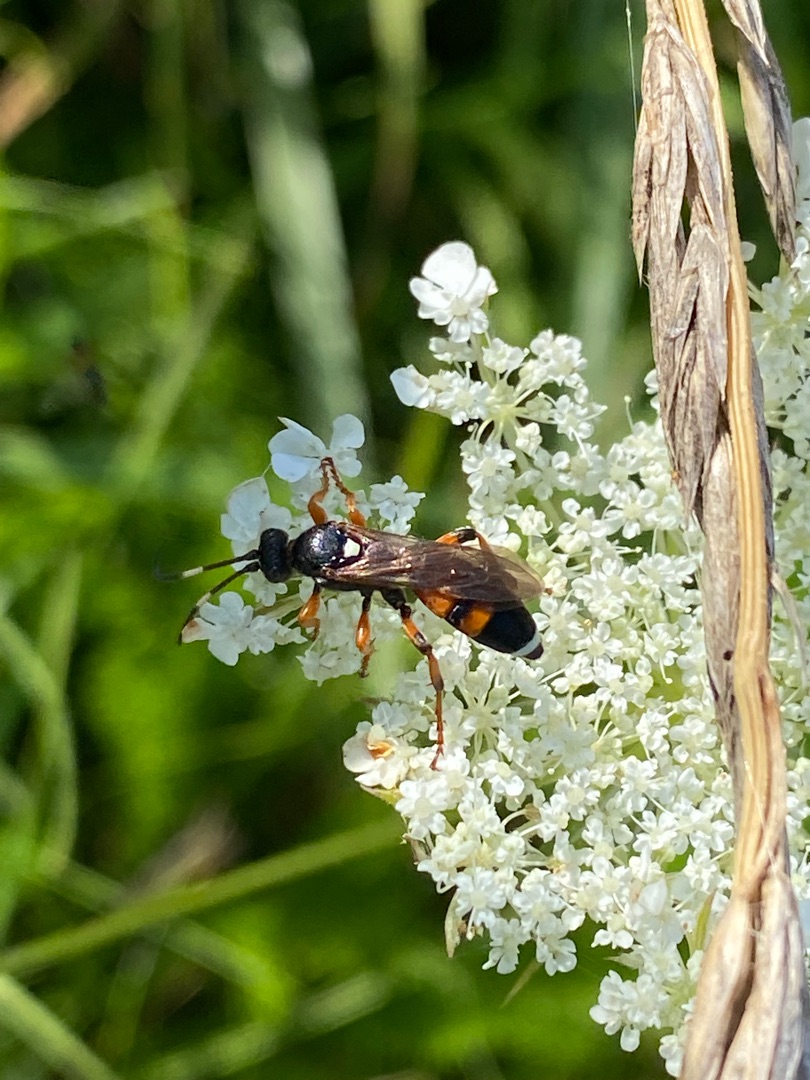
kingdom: Animalia
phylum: Arthropoda
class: Insecta
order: Hymenoptera
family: Ichneumonidae
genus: Ichneumon
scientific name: Ichneumon sarcitorius
